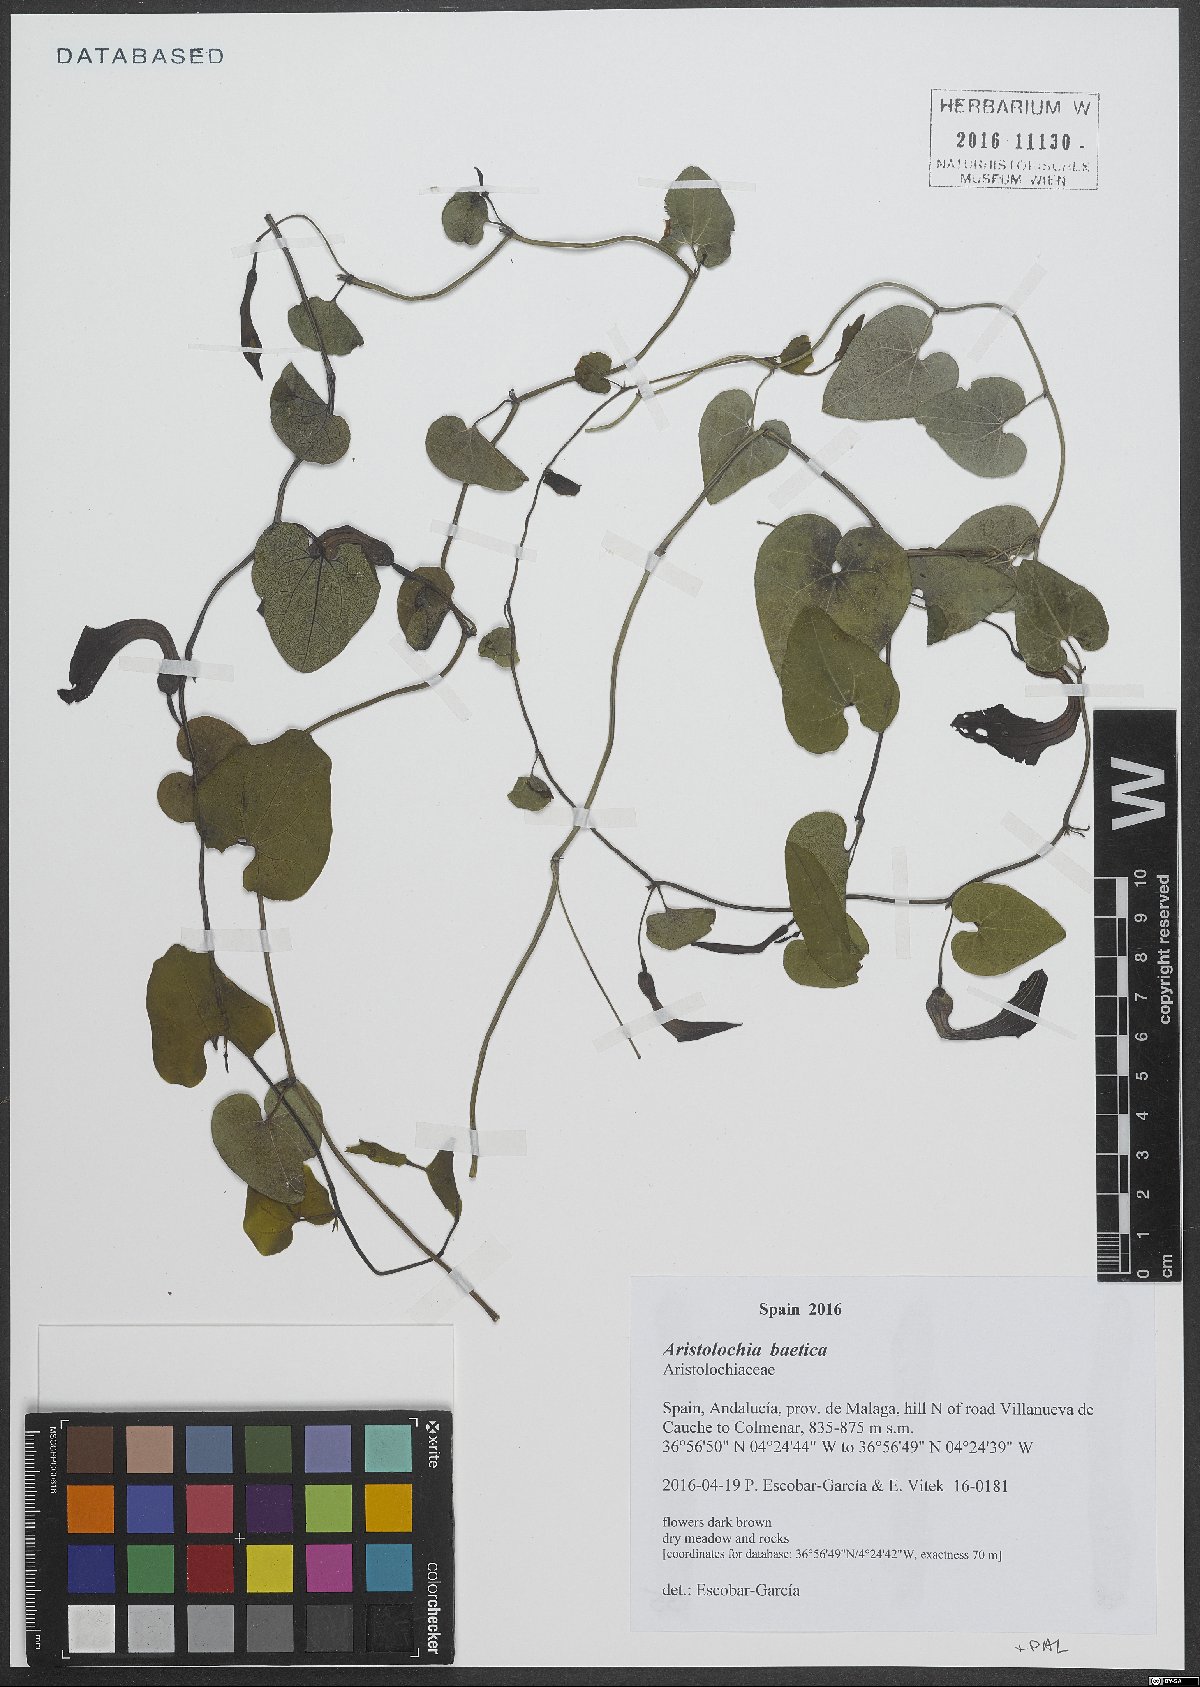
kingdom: Plantae
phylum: Tracheophyta
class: Magnoliopsida
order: Piperales
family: Aristolochiaceae
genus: Aristolochia
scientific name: Aristolochia baetica
